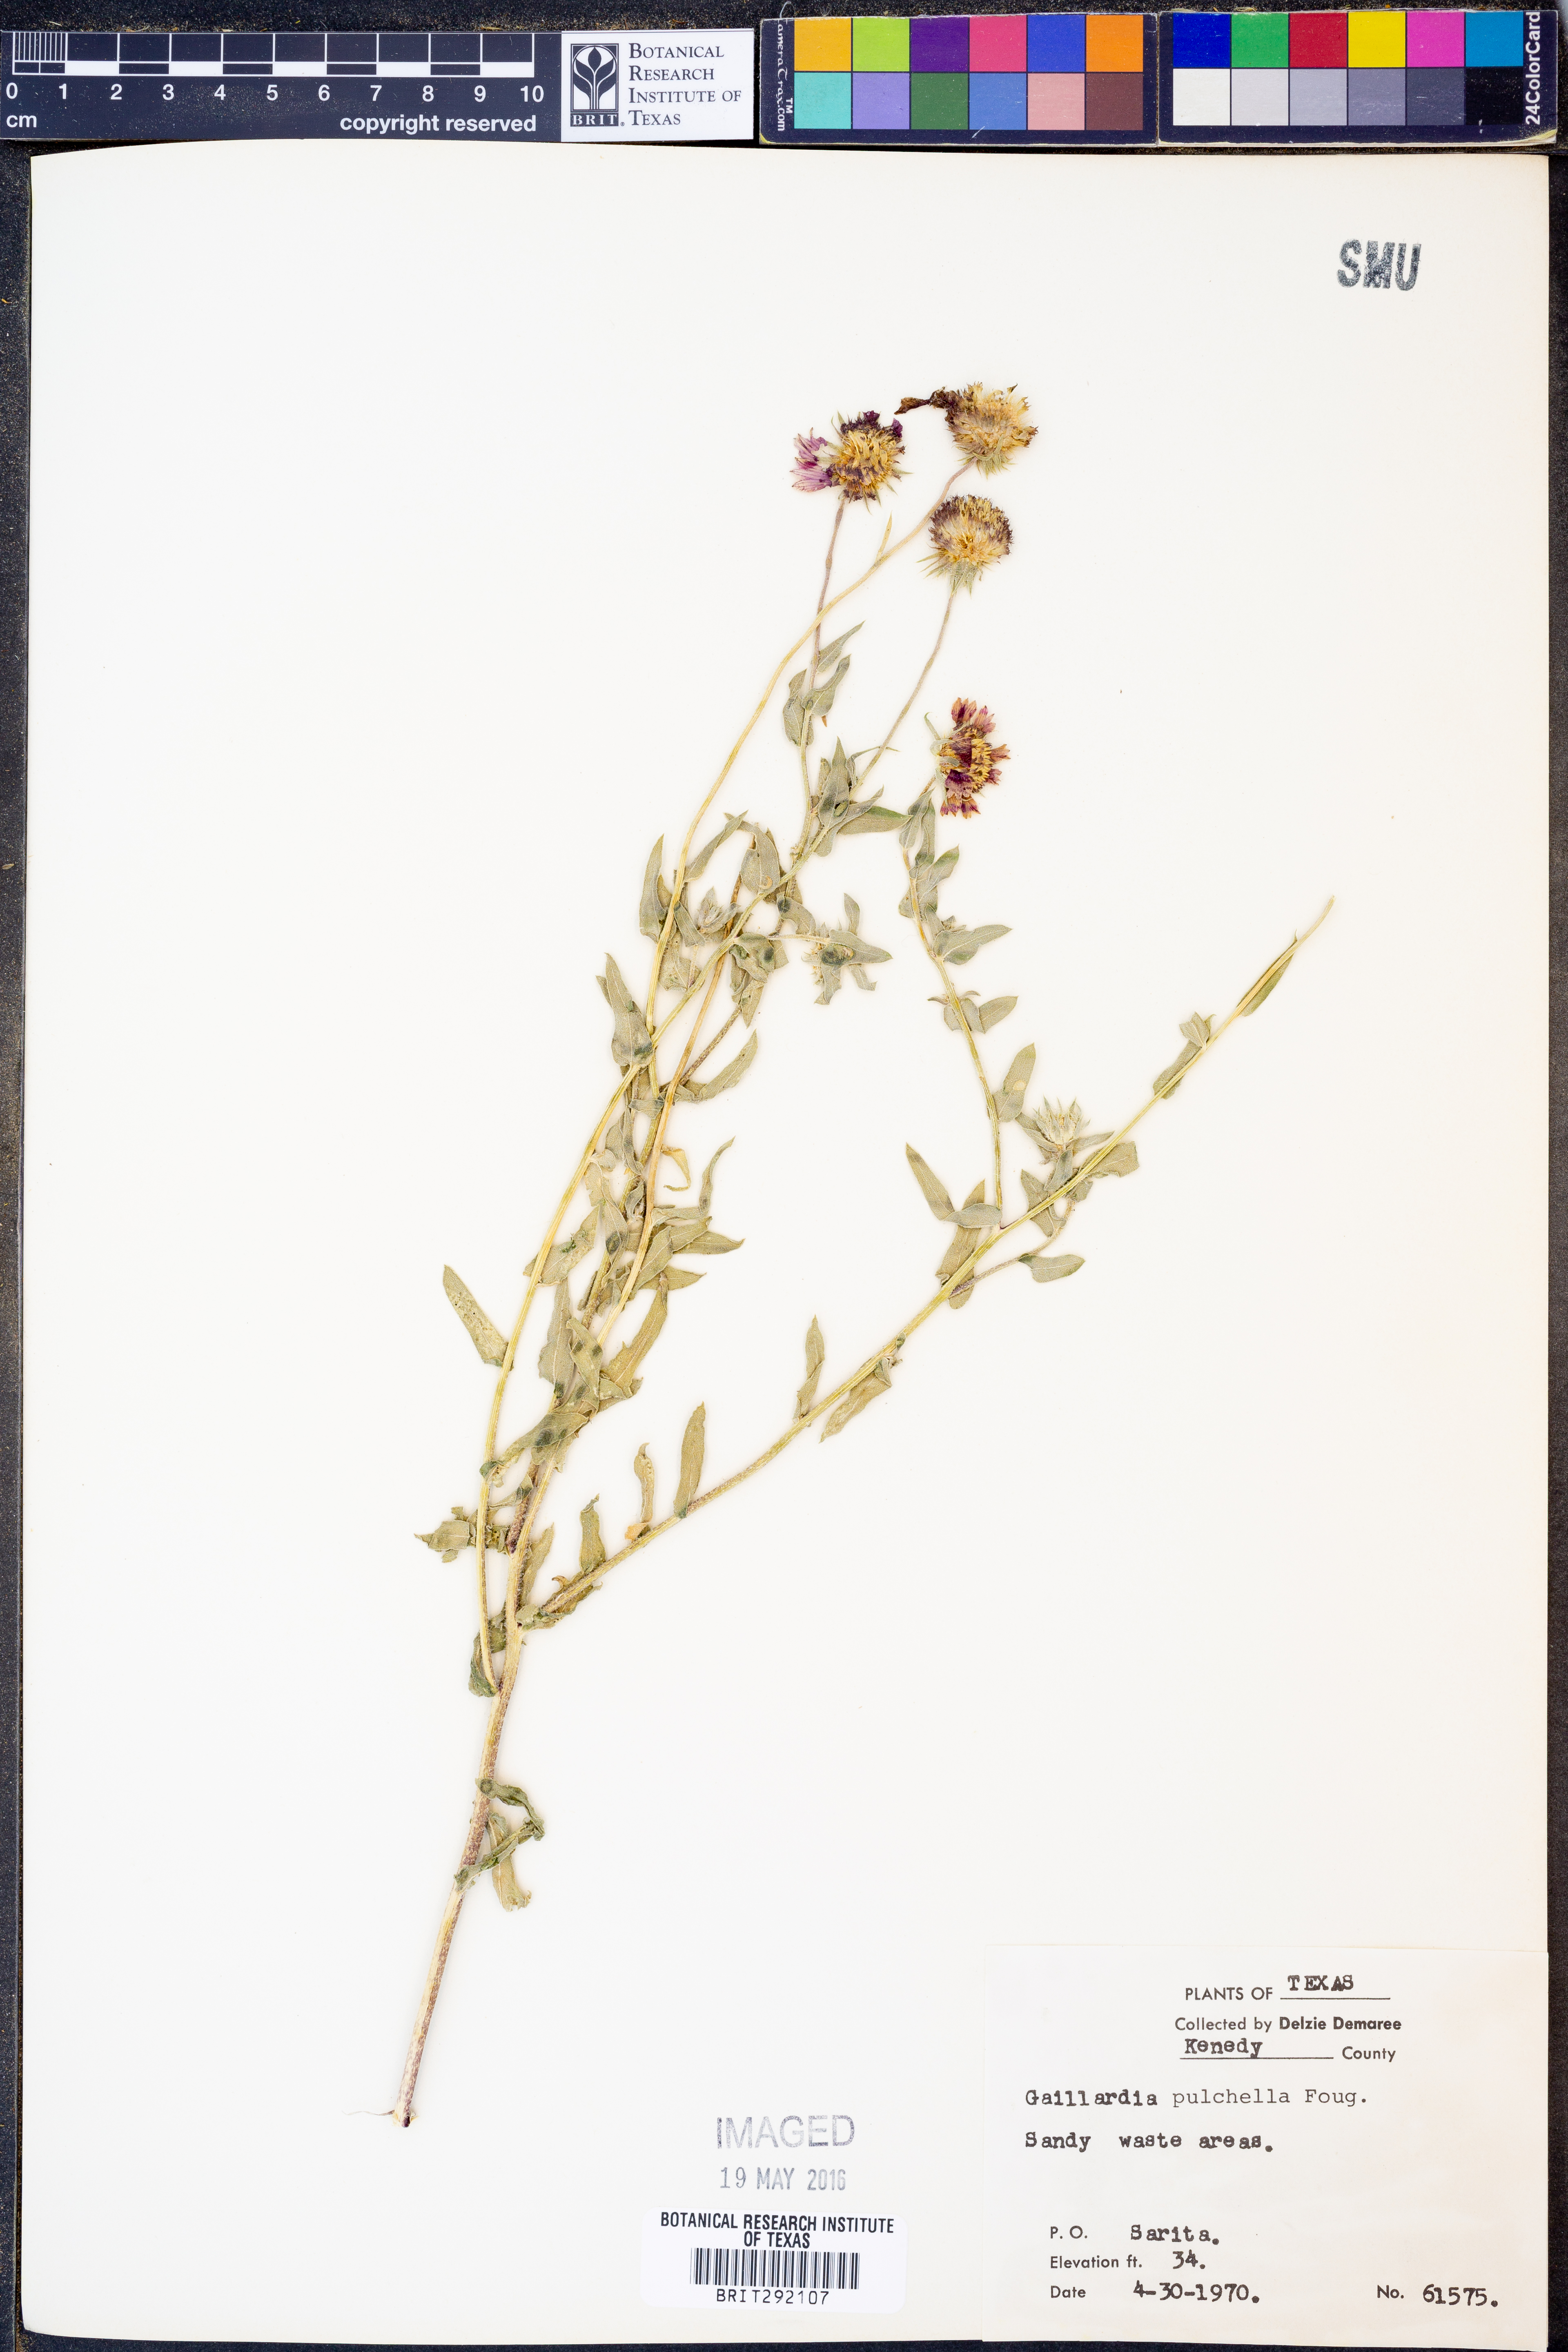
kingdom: Plantae
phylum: Tracheophyta
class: Magnoliopsida
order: Asterales
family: Asteraceae
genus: Gaillardia
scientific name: Gaillardia pulchella
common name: Firewheel
